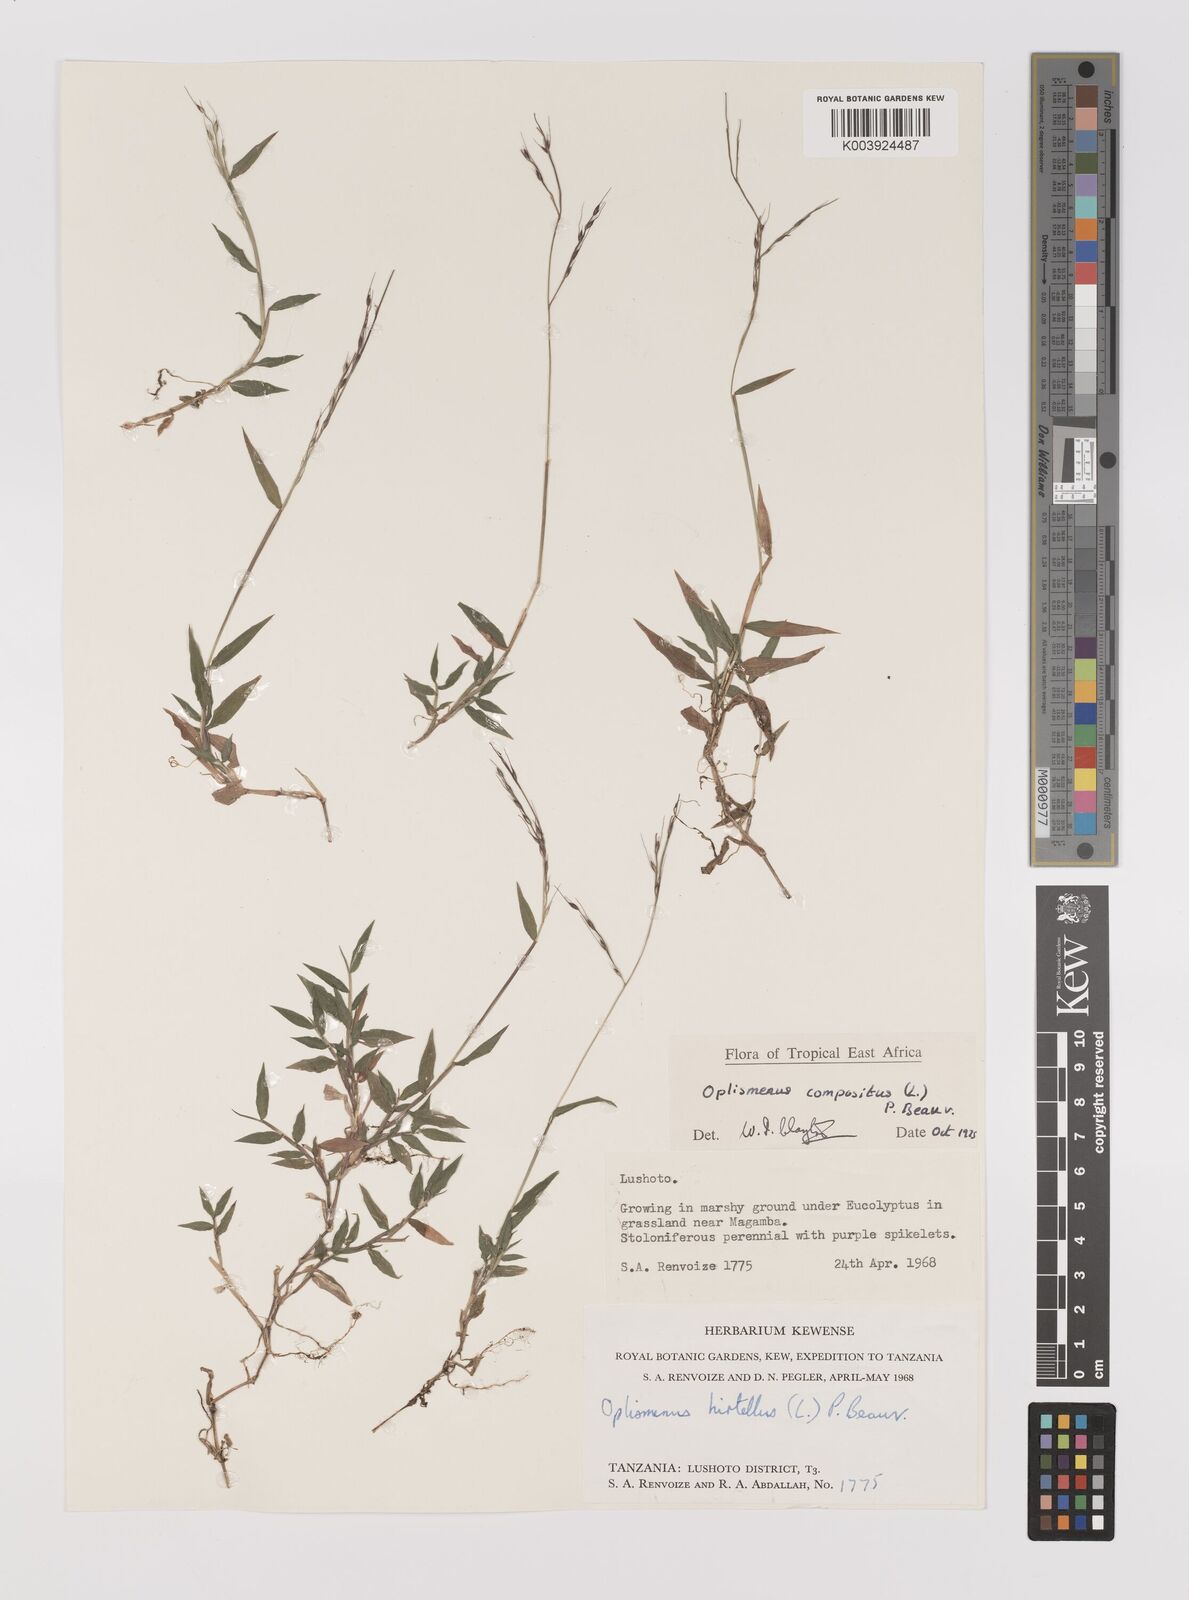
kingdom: Plantae
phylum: Tracheophyta
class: Liliopsida
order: Poales
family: Poaceae
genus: Oplismenus
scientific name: Oplismenus compositus
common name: Running mountain grass
